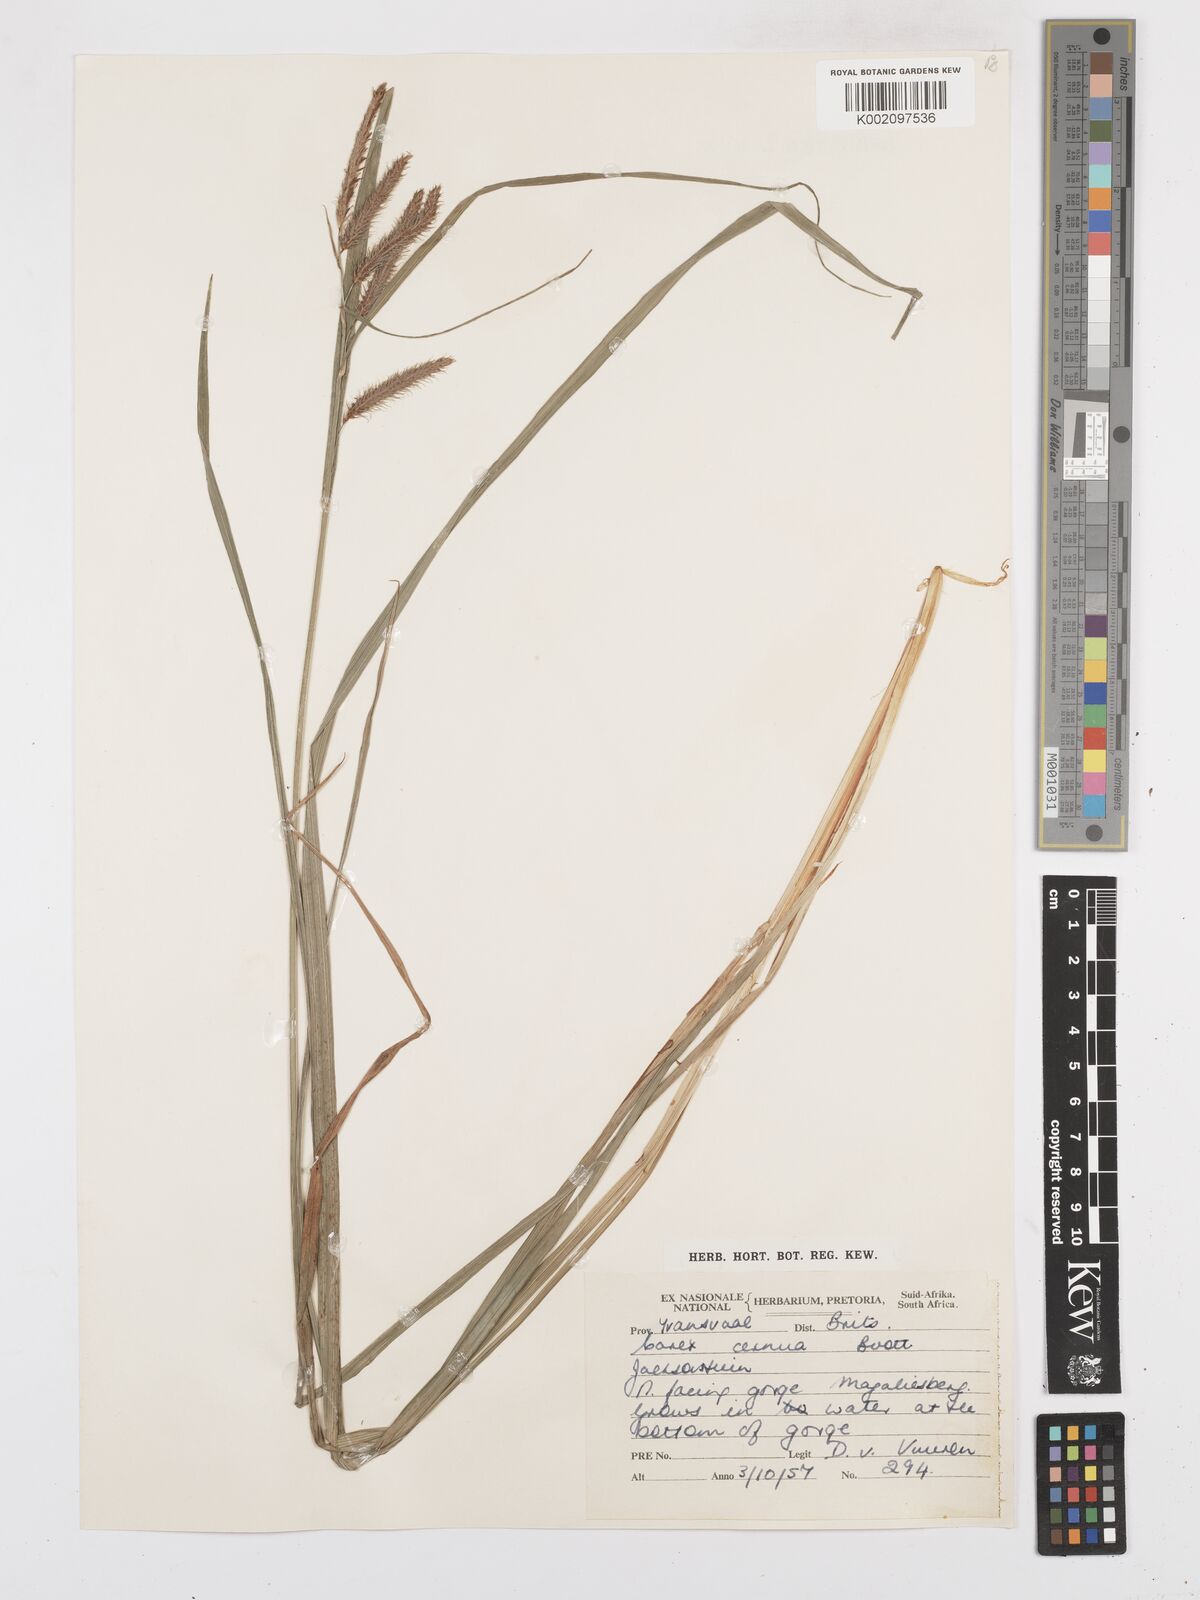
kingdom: Plantae
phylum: Tracheophyta
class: Liliopsida
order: Poales
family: Cyperaceae
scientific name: Cyperaceae
